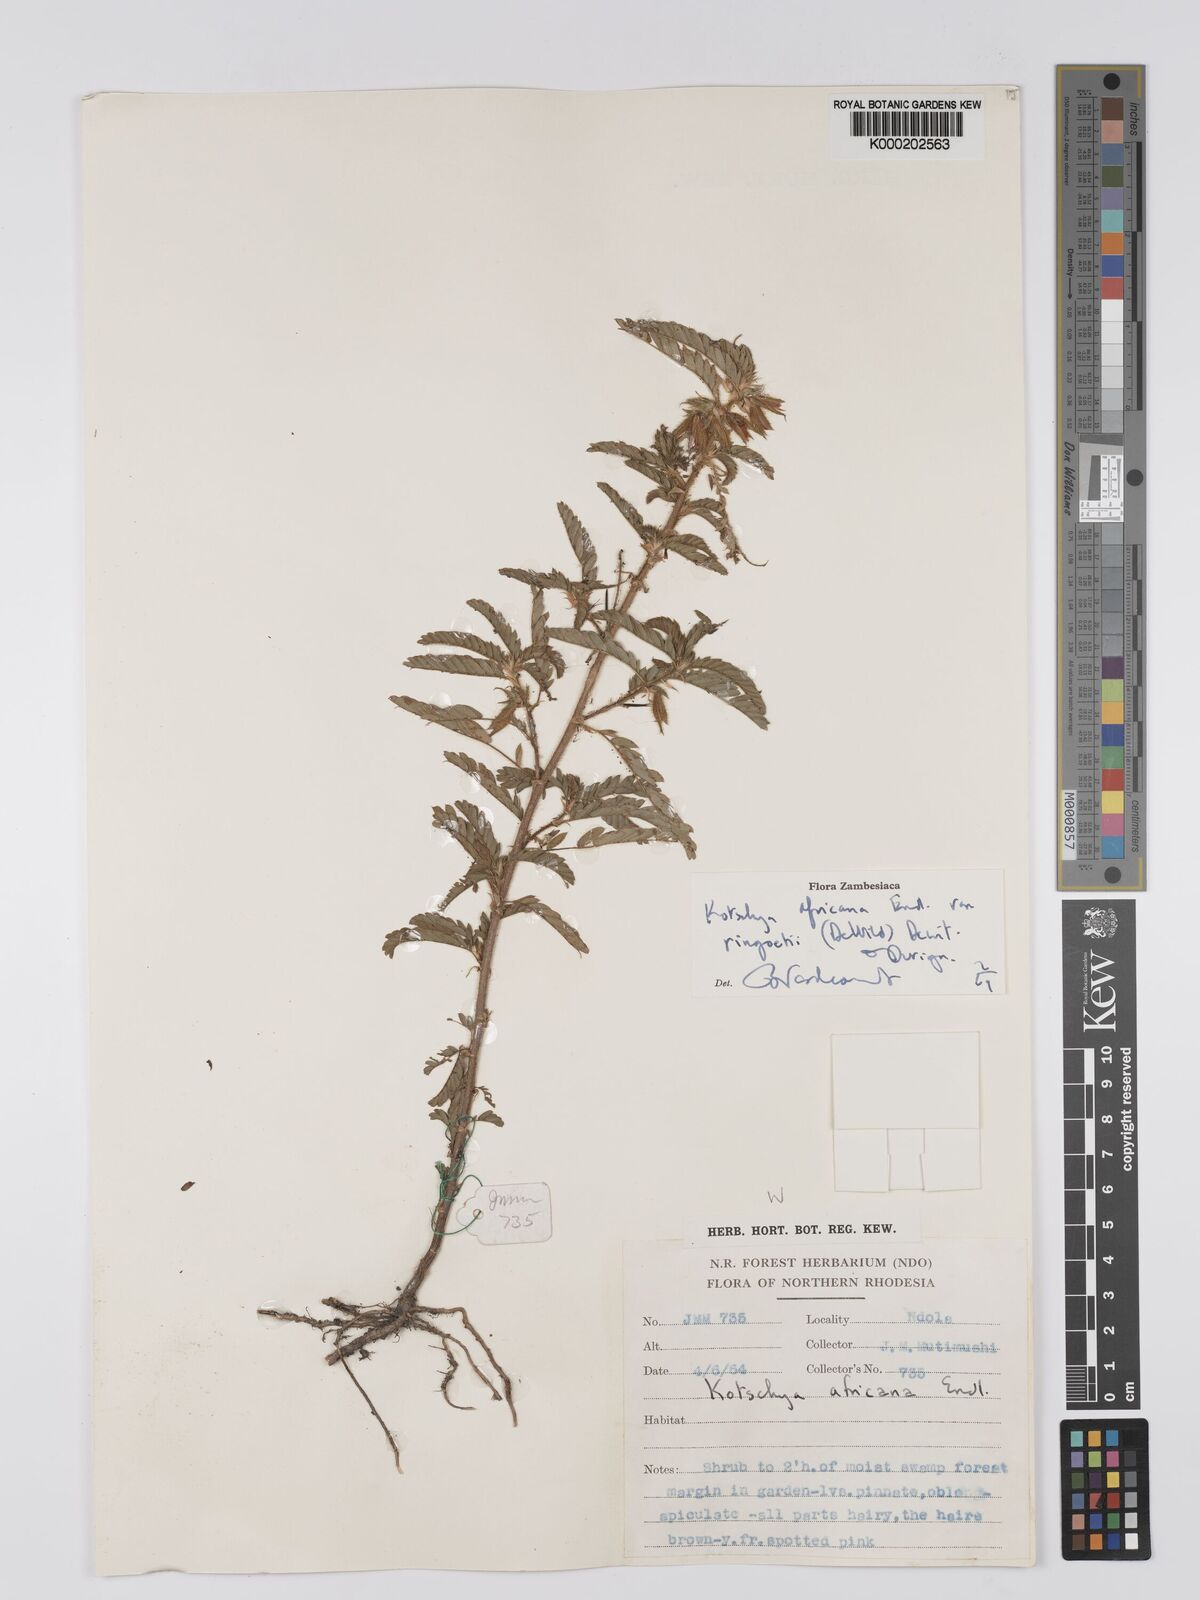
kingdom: Plantae
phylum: Tracheophyta
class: Magnoliopsida
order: Fabales
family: Fabaceae
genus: Kotschya
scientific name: Kotschya africana
